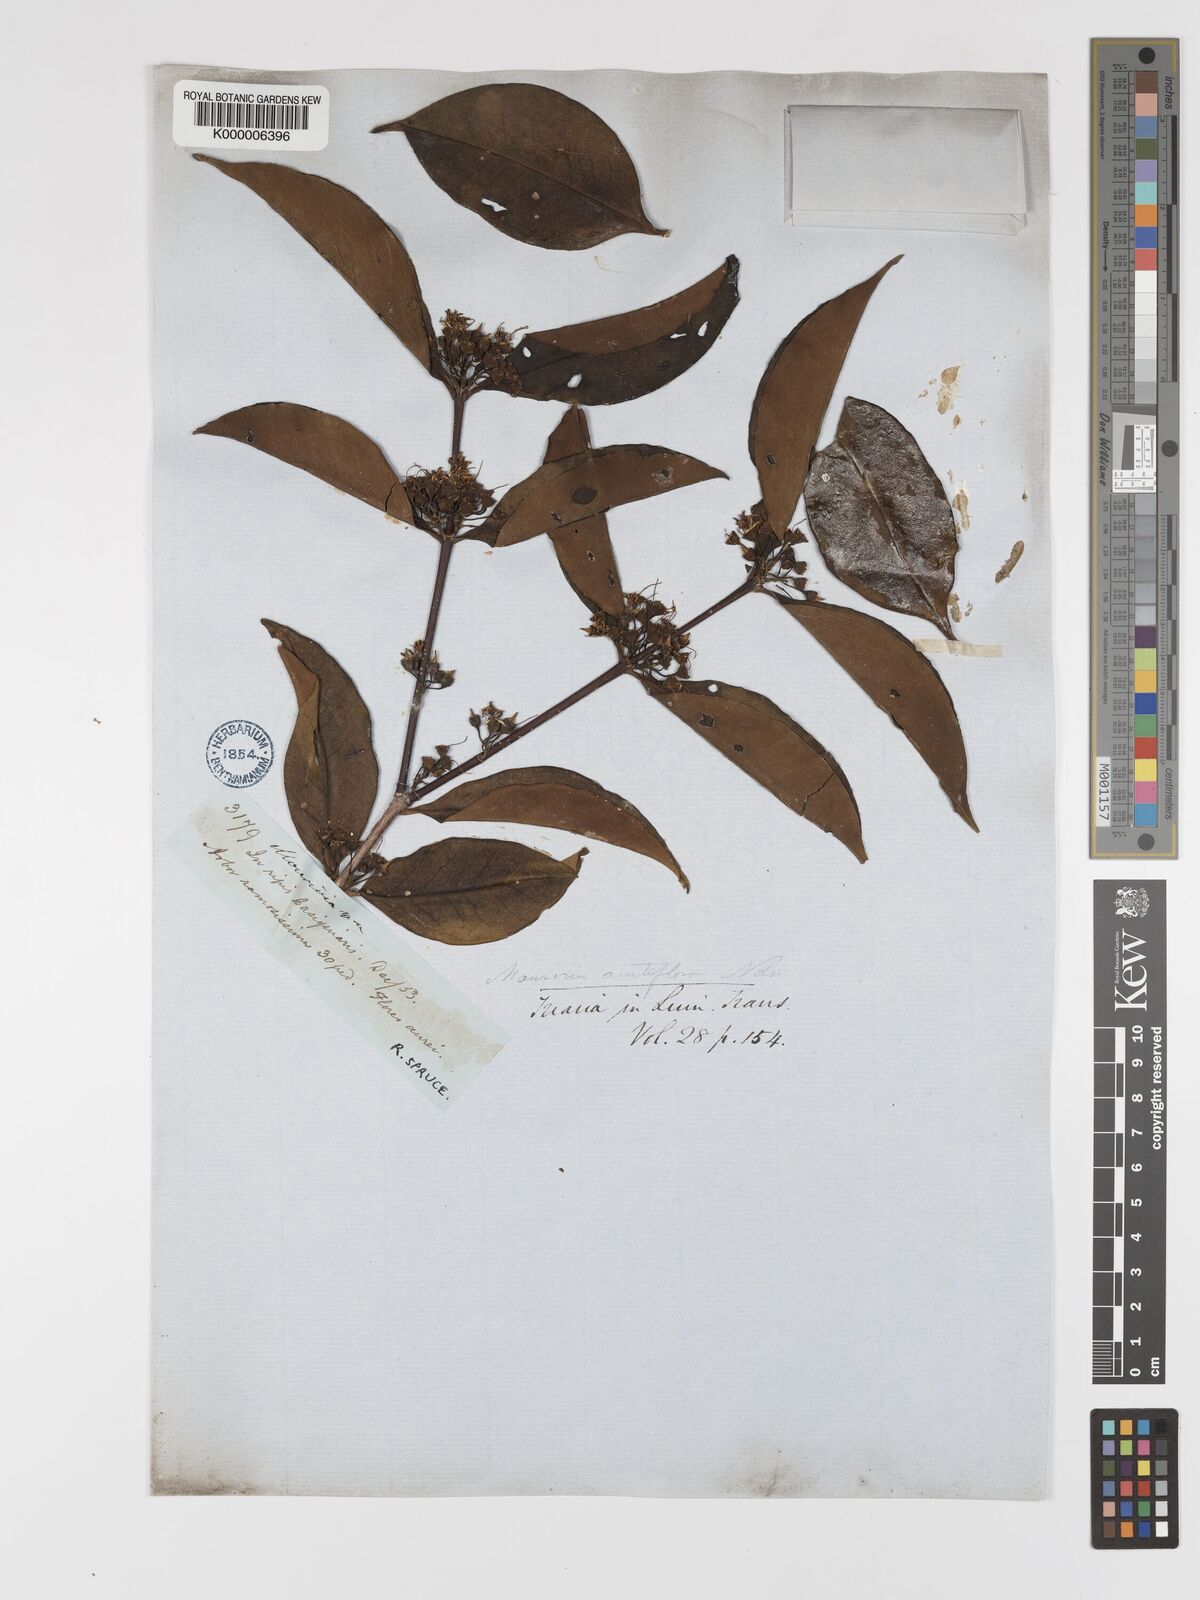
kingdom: Plantae
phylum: Tracheophyta
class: Magnoliopsida
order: Myrtales
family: Melastomataceae
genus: Mouriri
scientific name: Mouriri
